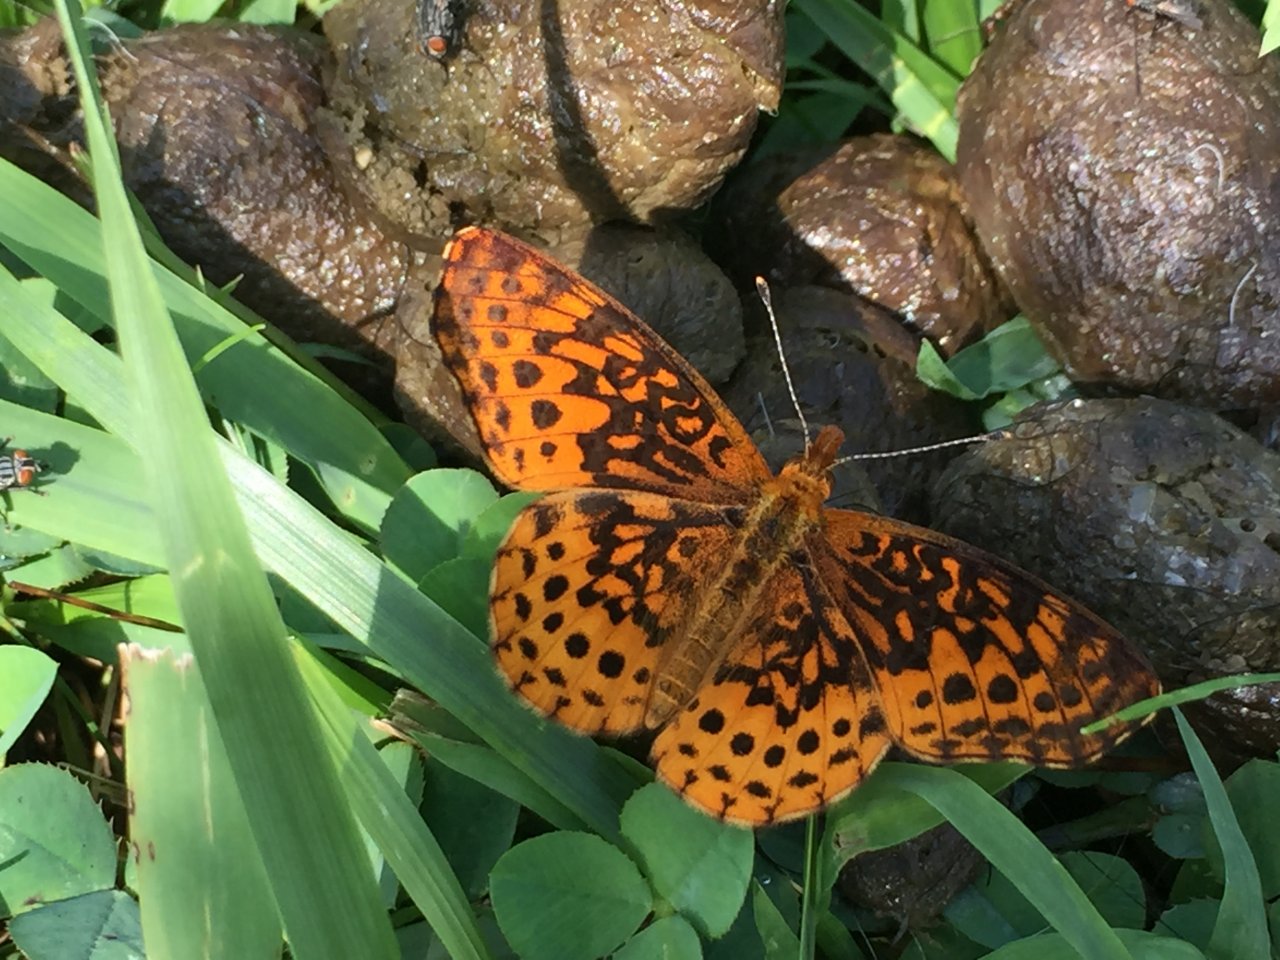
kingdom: Animalia
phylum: Arthropoda
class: Insecta
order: Lepidoptera
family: Nymphalidae
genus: Clossiana
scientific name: Clossiana toddi
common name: Meadow Fritillary
